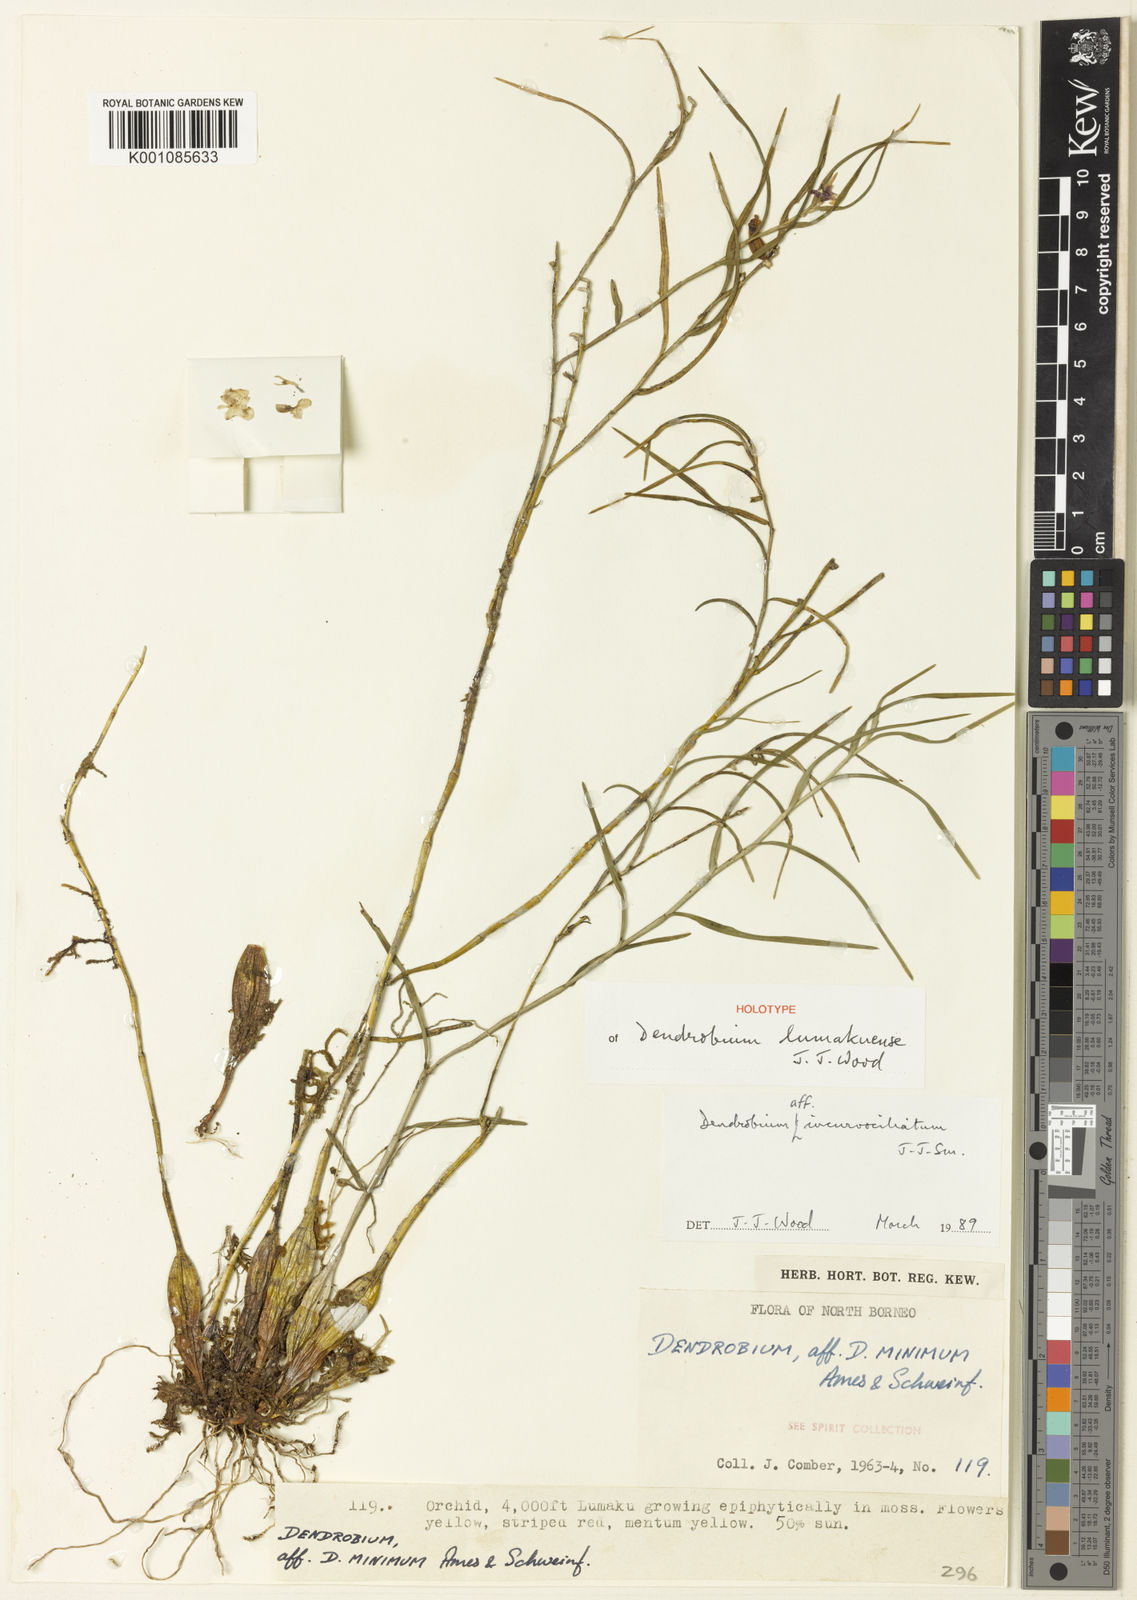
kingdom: Plantae
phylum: Tracheophyta
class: Liliopsida
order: Asparagales
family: Orchidaceae
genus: Dendrobium
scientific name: Dendrobium lumakuense
